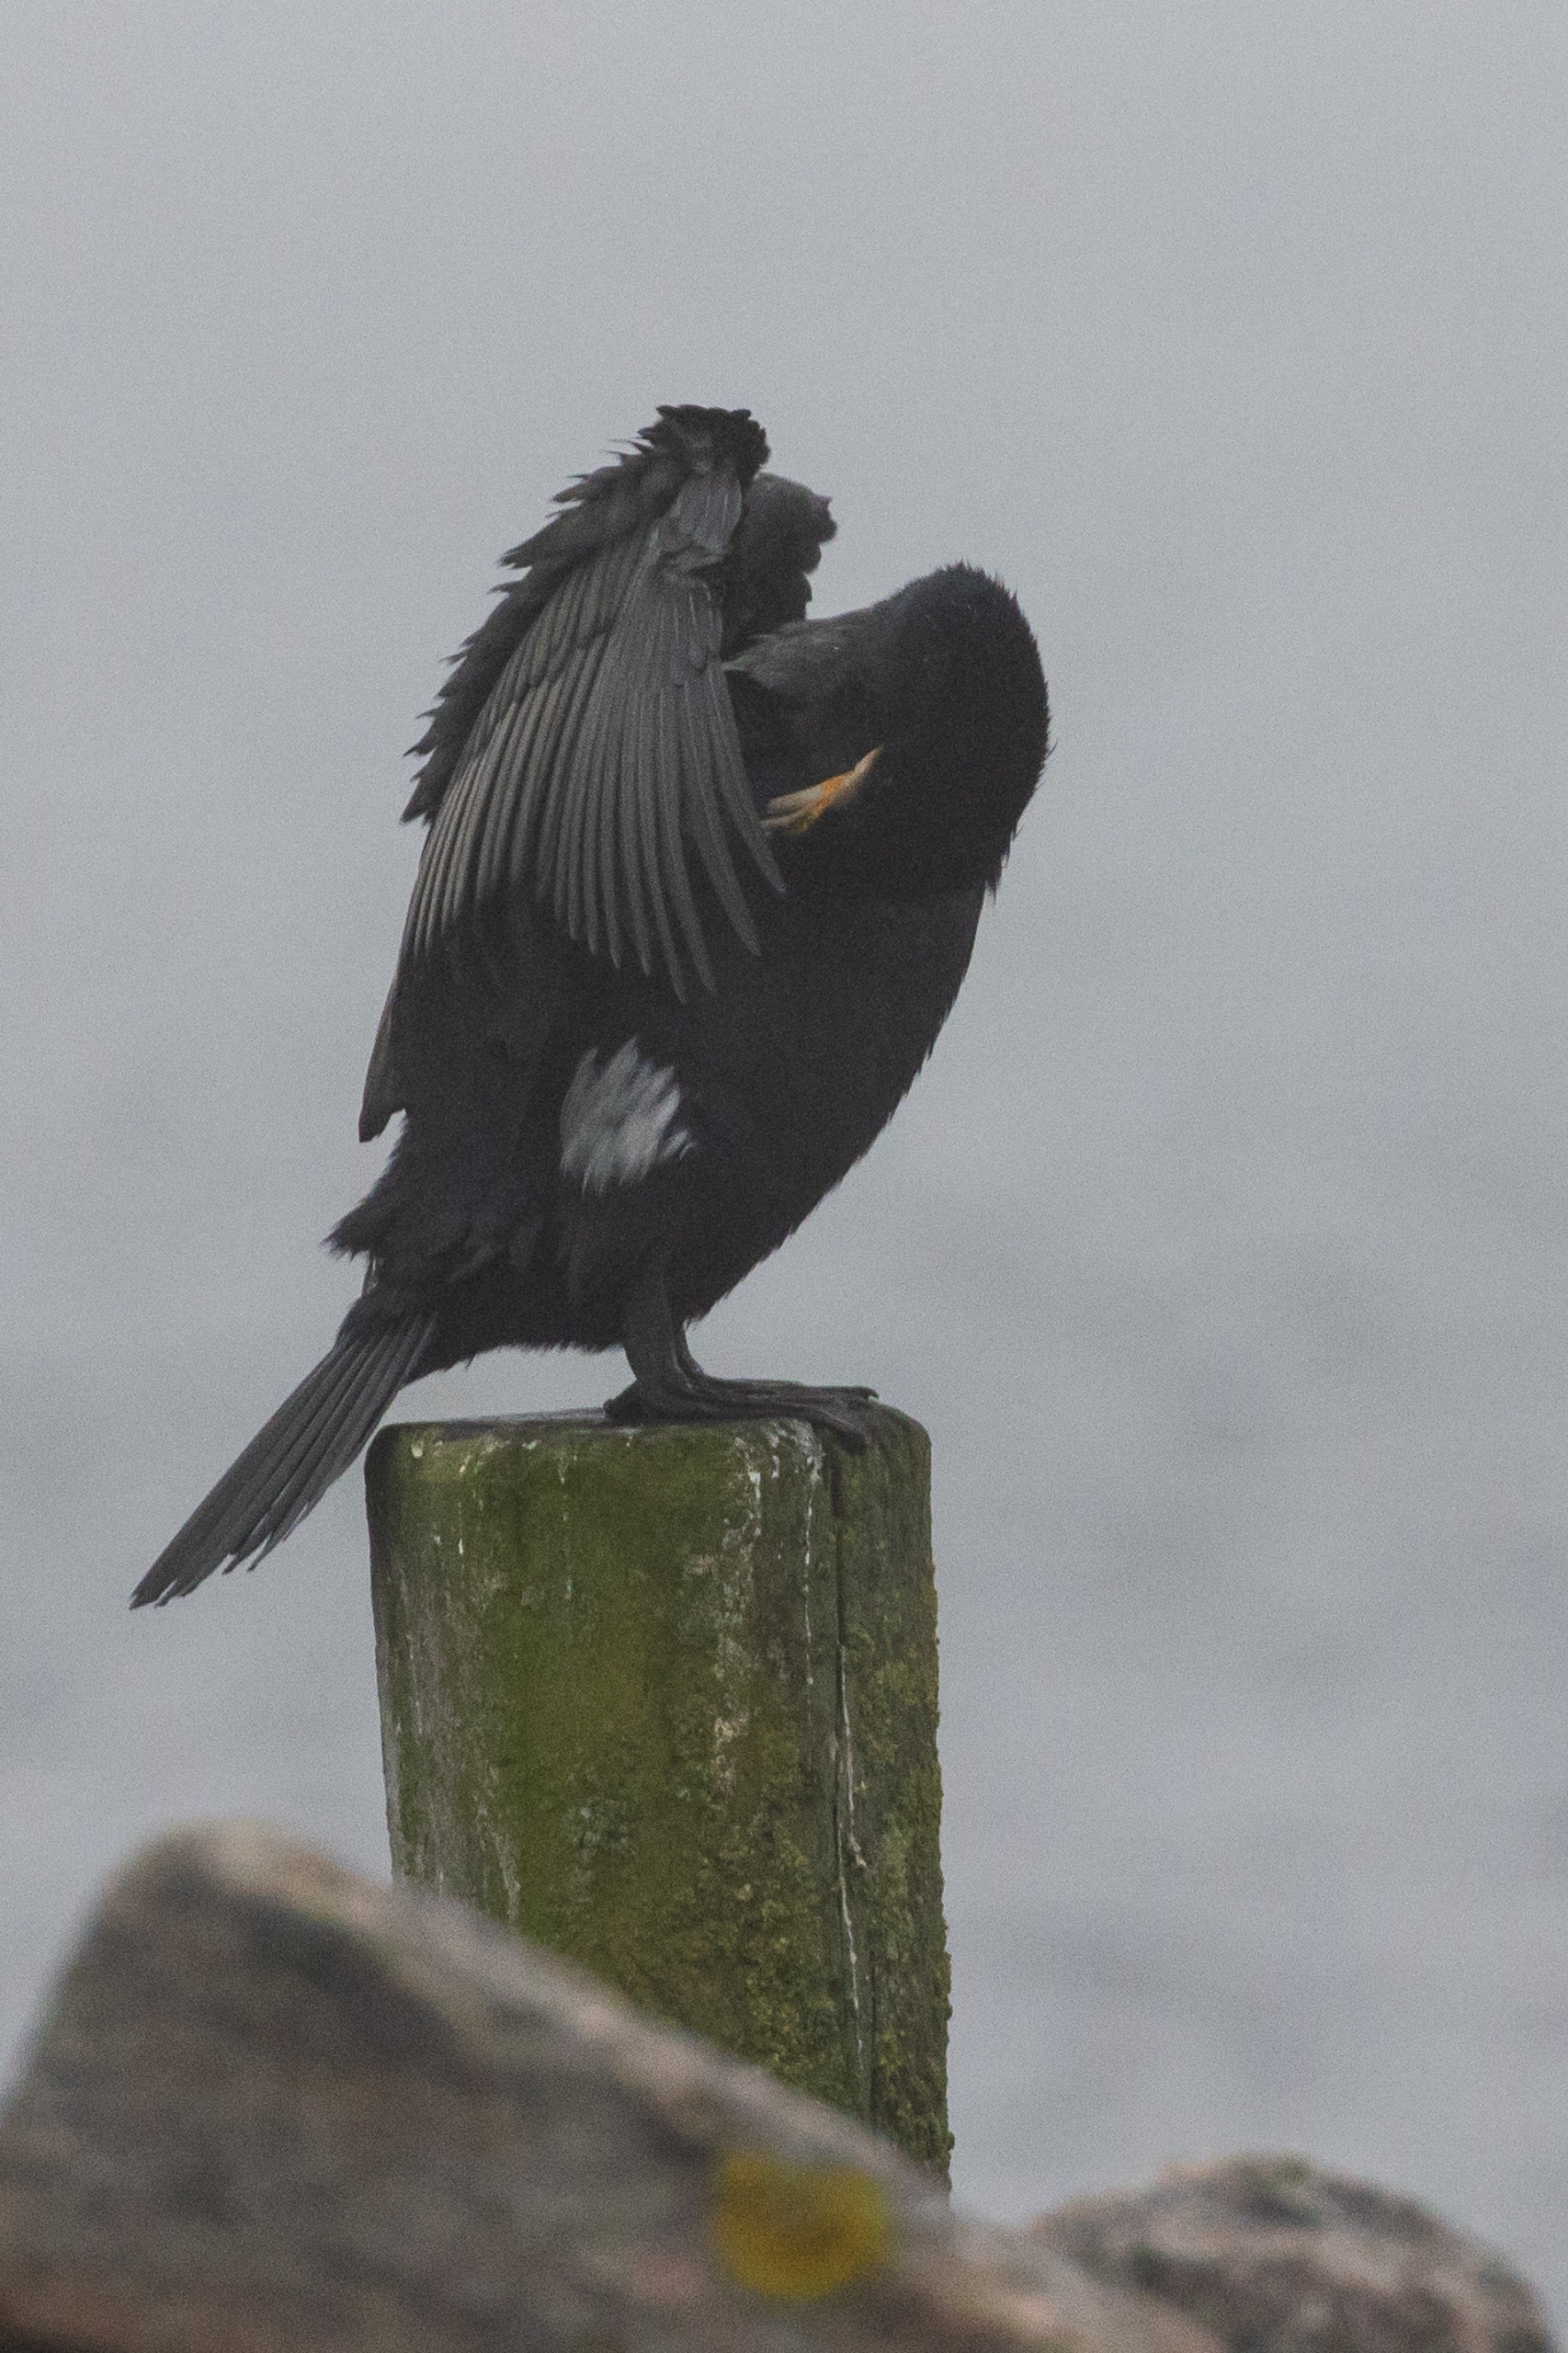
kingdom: Animalia
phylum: Chordata
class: Aves
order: Suliformes
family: Phalacrocoracidae
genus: Phalacrocorax
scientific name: Phalacrocorax carbo
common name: Skarv
